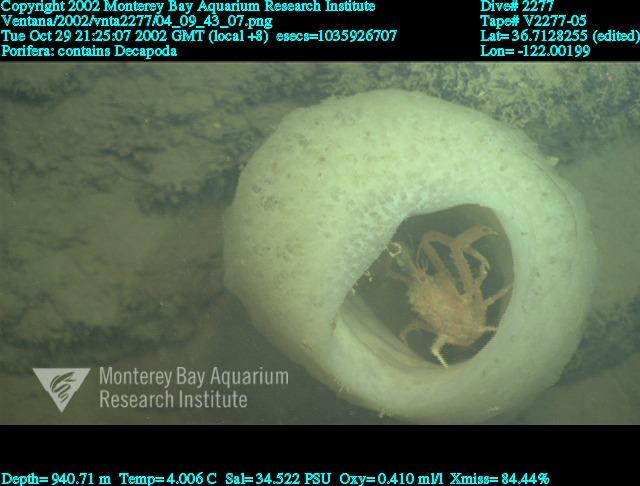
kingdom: Animalia
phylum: Porifera
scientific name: Porifera
